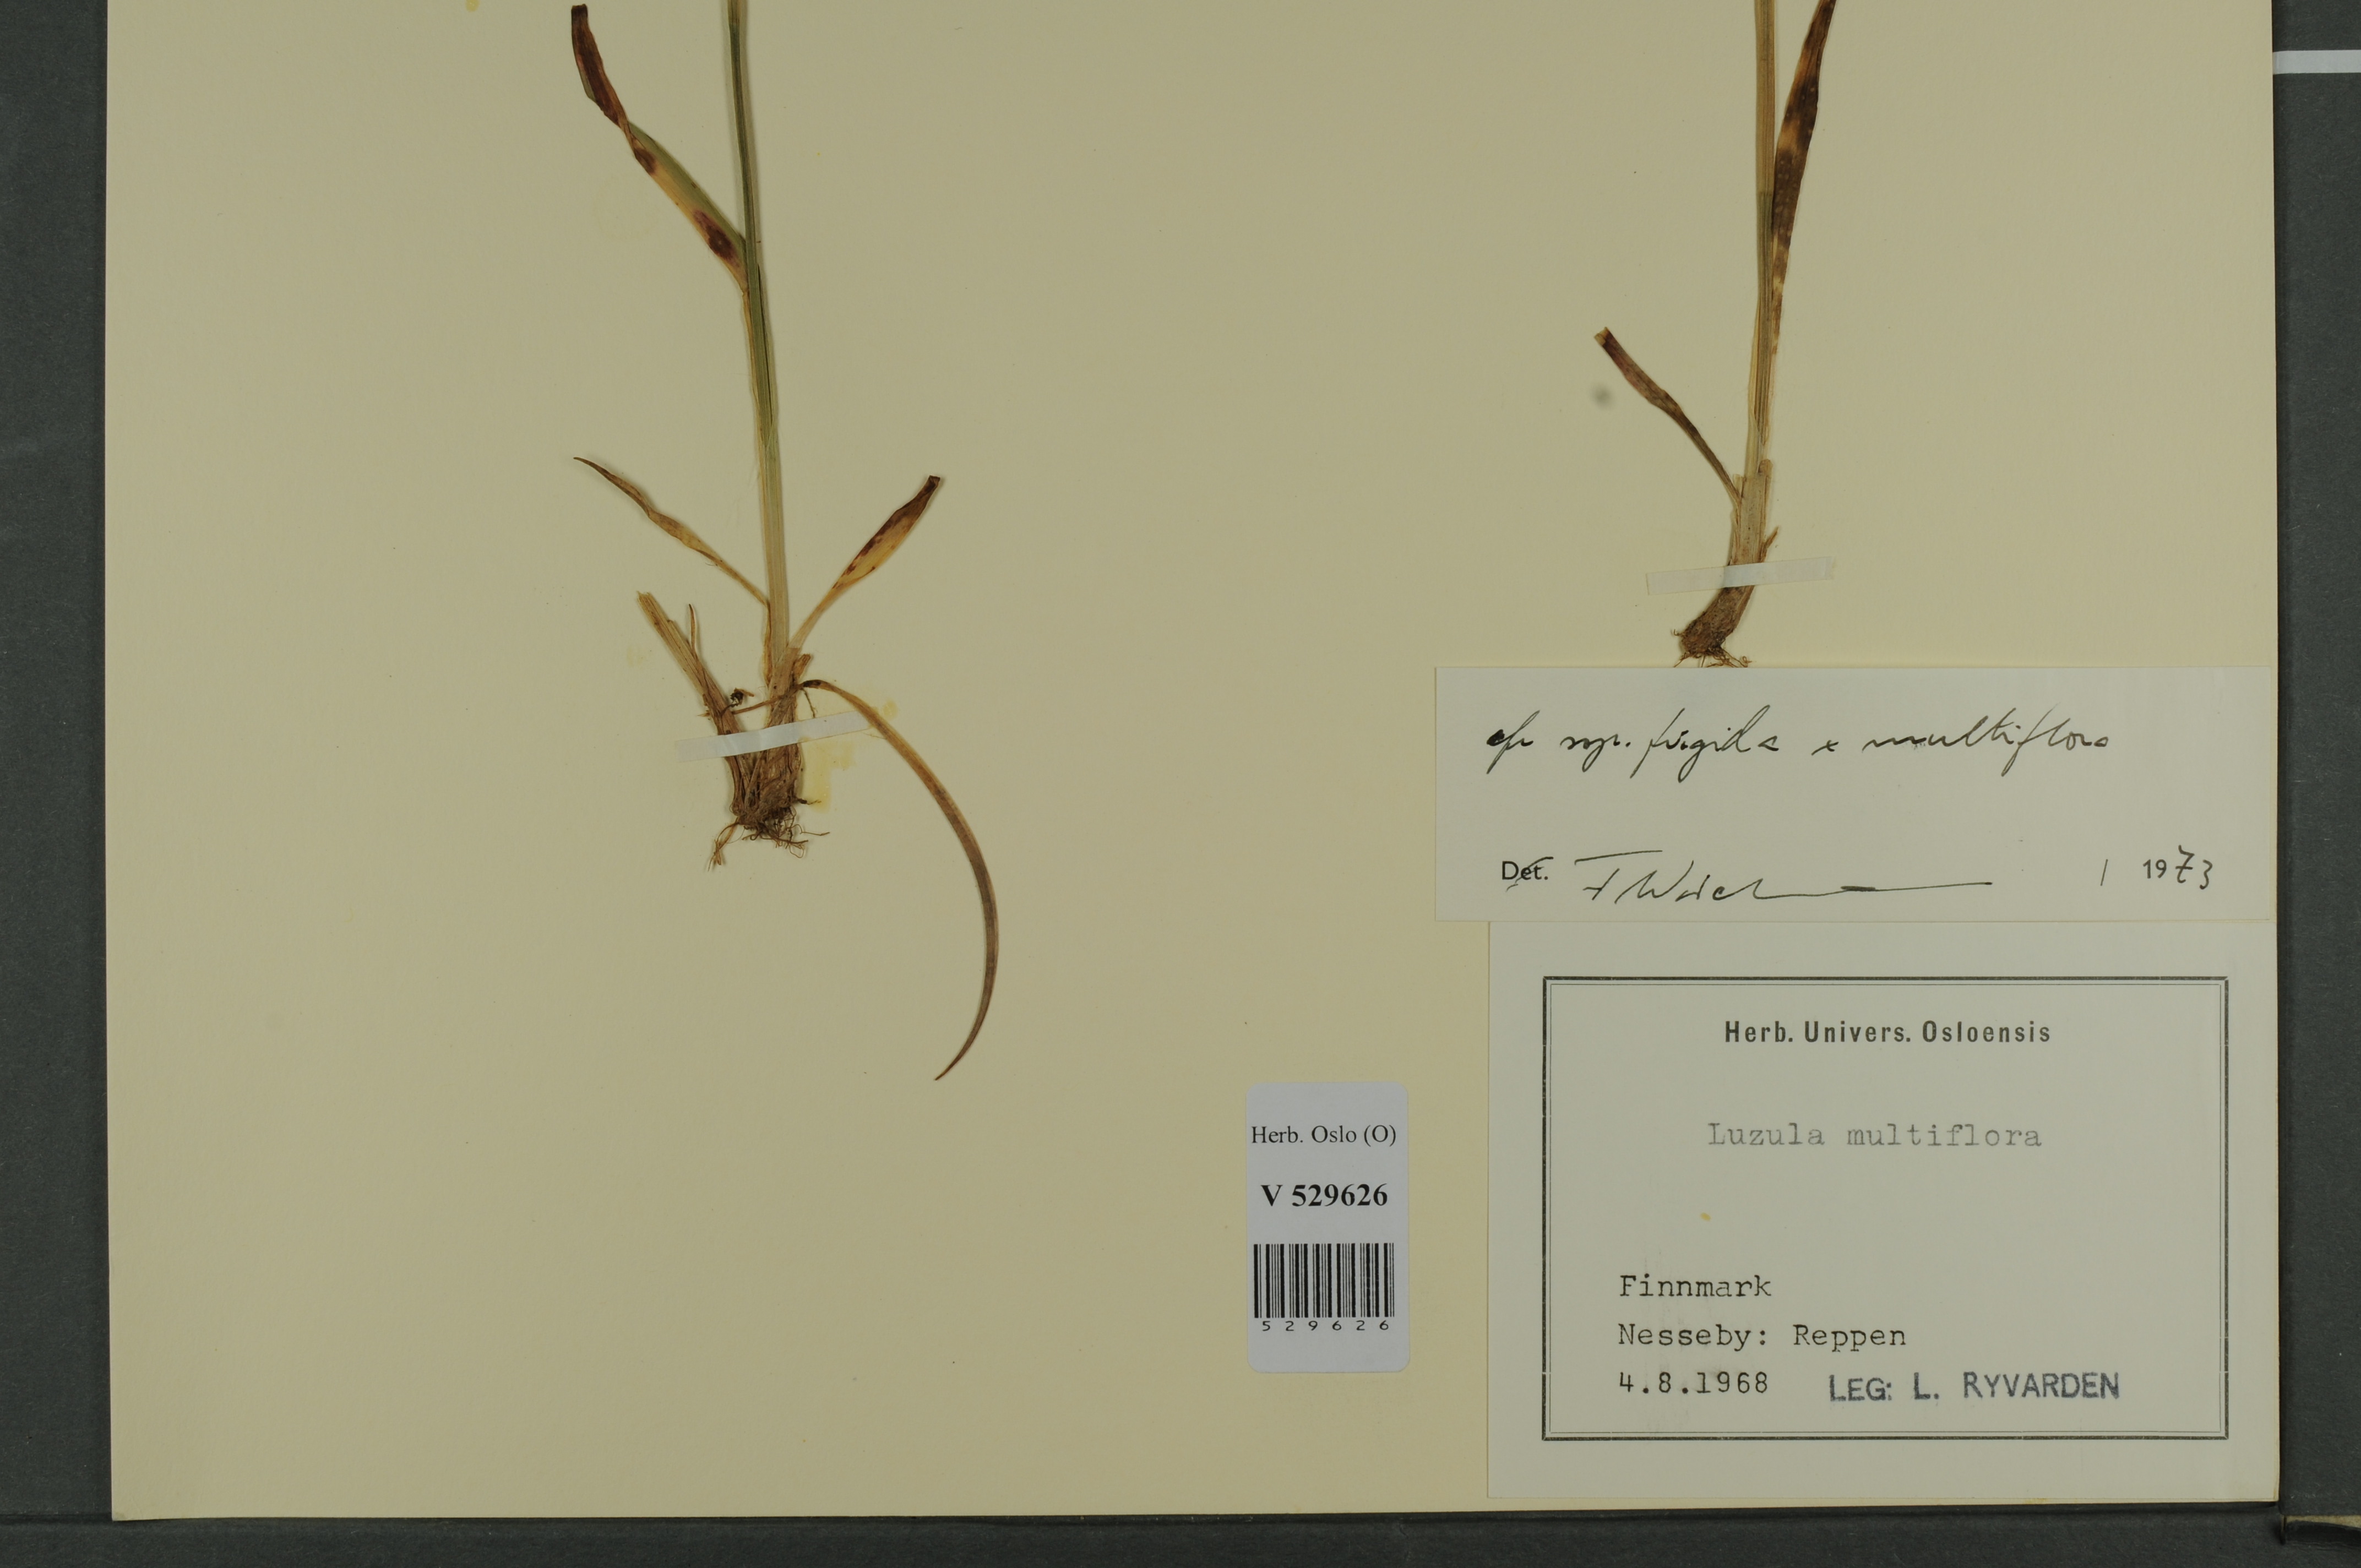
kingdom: Plantae
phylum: Tracheophyta
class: Liliopsida
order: Poales
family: Juncaceae
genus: Luzula
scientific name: Luzula
